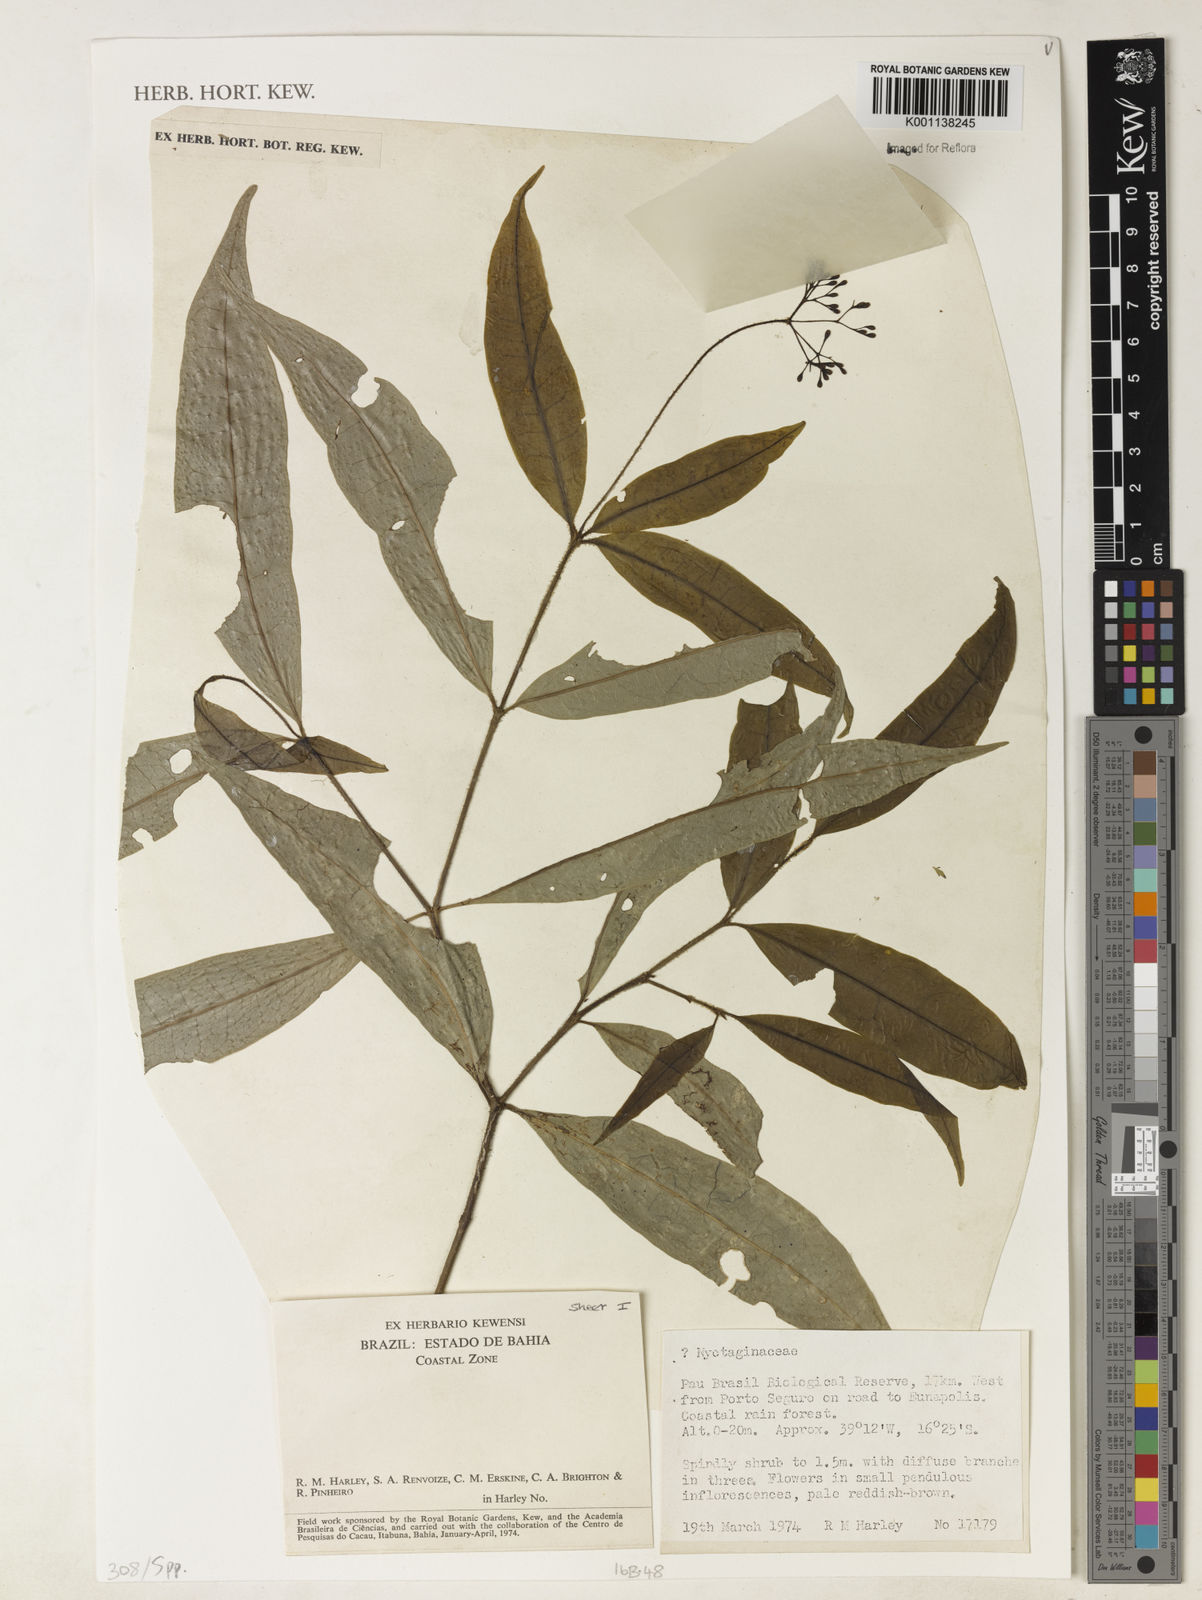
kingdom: Plantae
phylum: Tracheophyta
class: Magnoliopsida
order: Caryophyllales
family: Nyctaginaceae
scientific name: Nyctaginaceae
